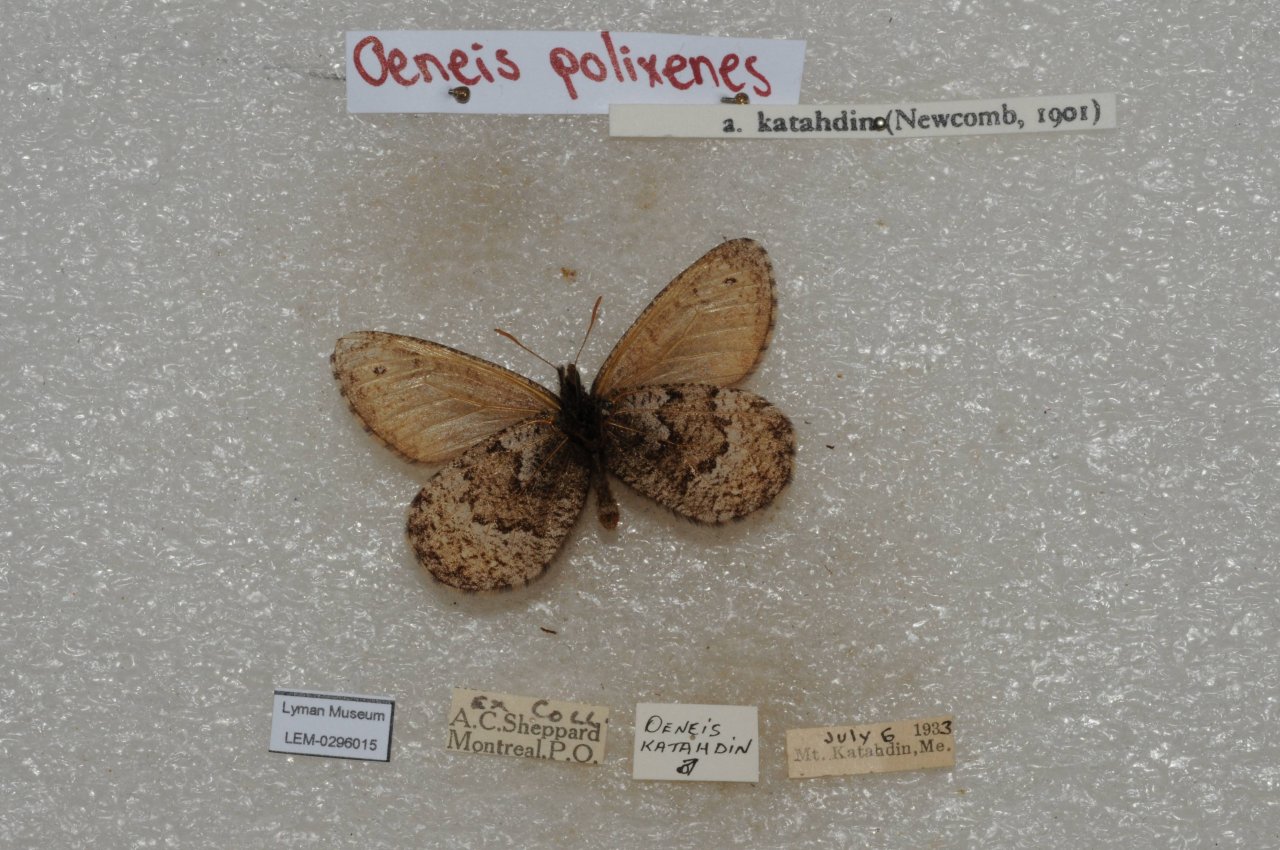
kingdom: Animalia
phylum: Arthropoda
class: Insecta
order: Lepidoptera
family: Nymphalidae
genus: Oeneis
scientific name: Oeneis bore
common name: Polixenes Arctic
